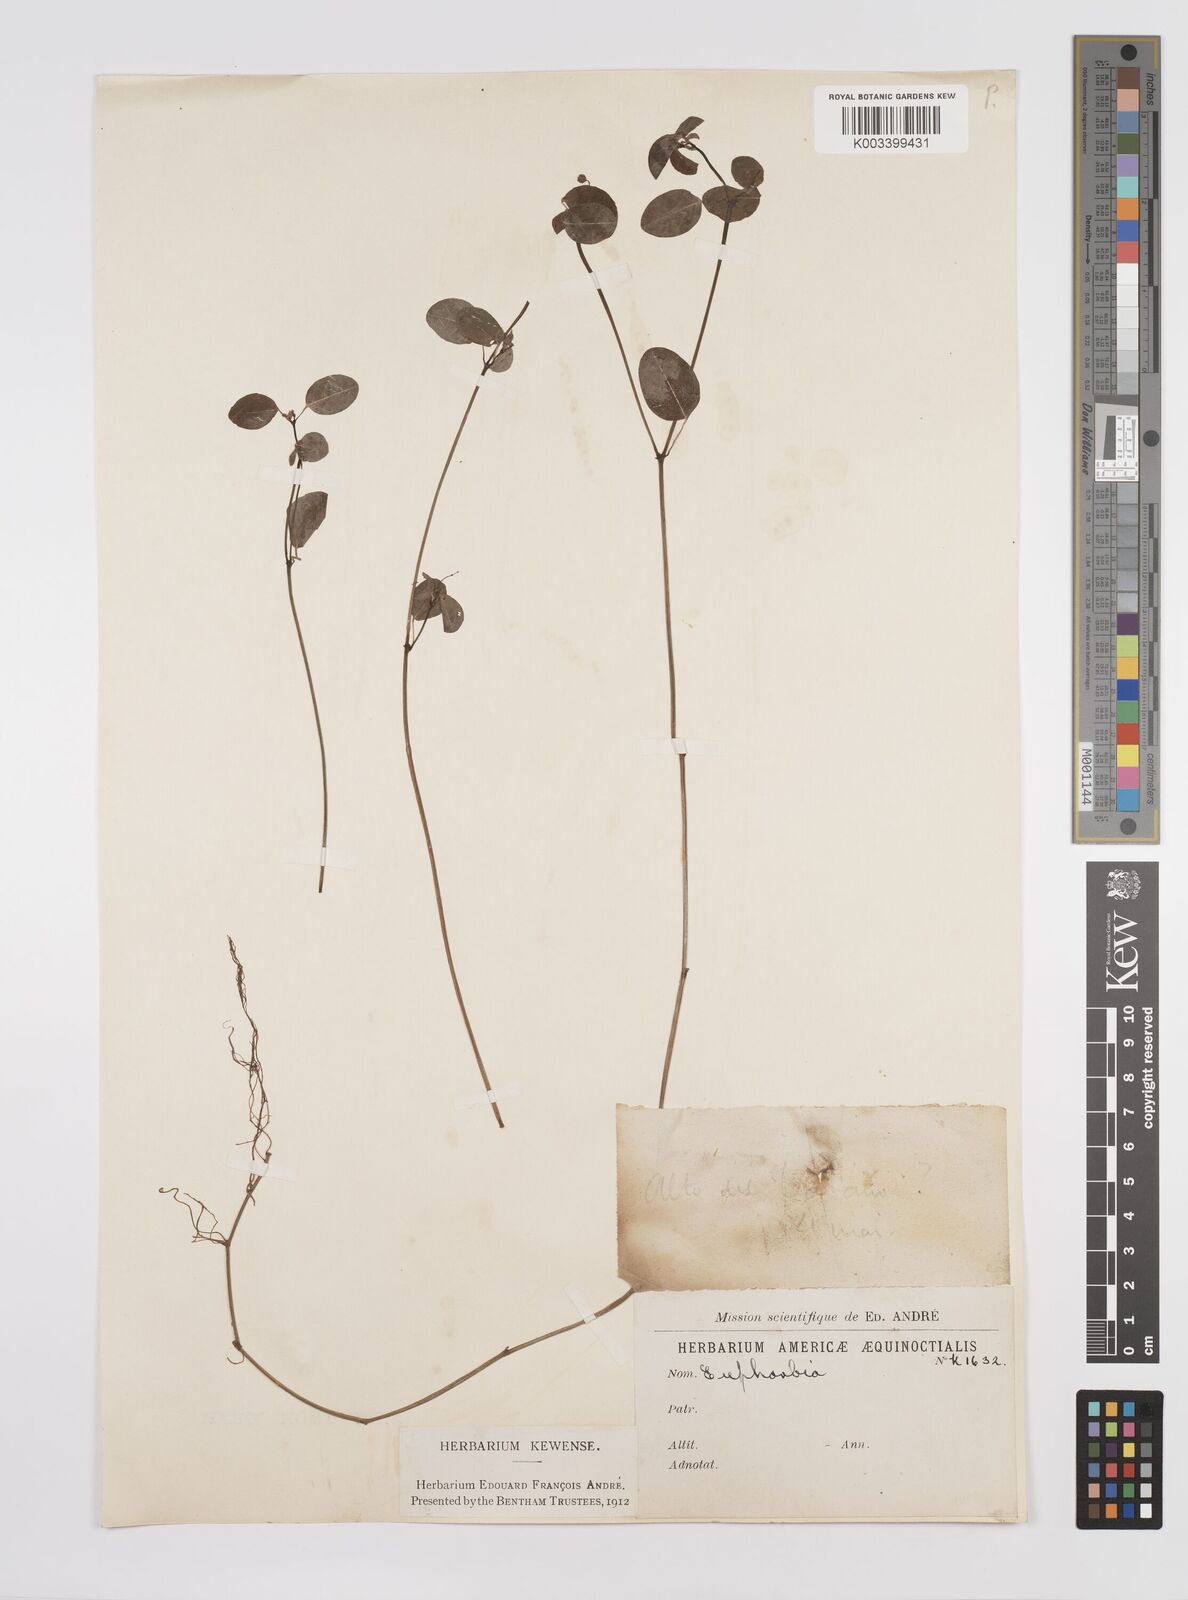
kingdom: Plantae
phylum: Tracheophyta
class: Magnoliopsida
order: Malpighiales
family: Euphorbiaceae
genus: Euphorbia
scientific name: Euphorbia
